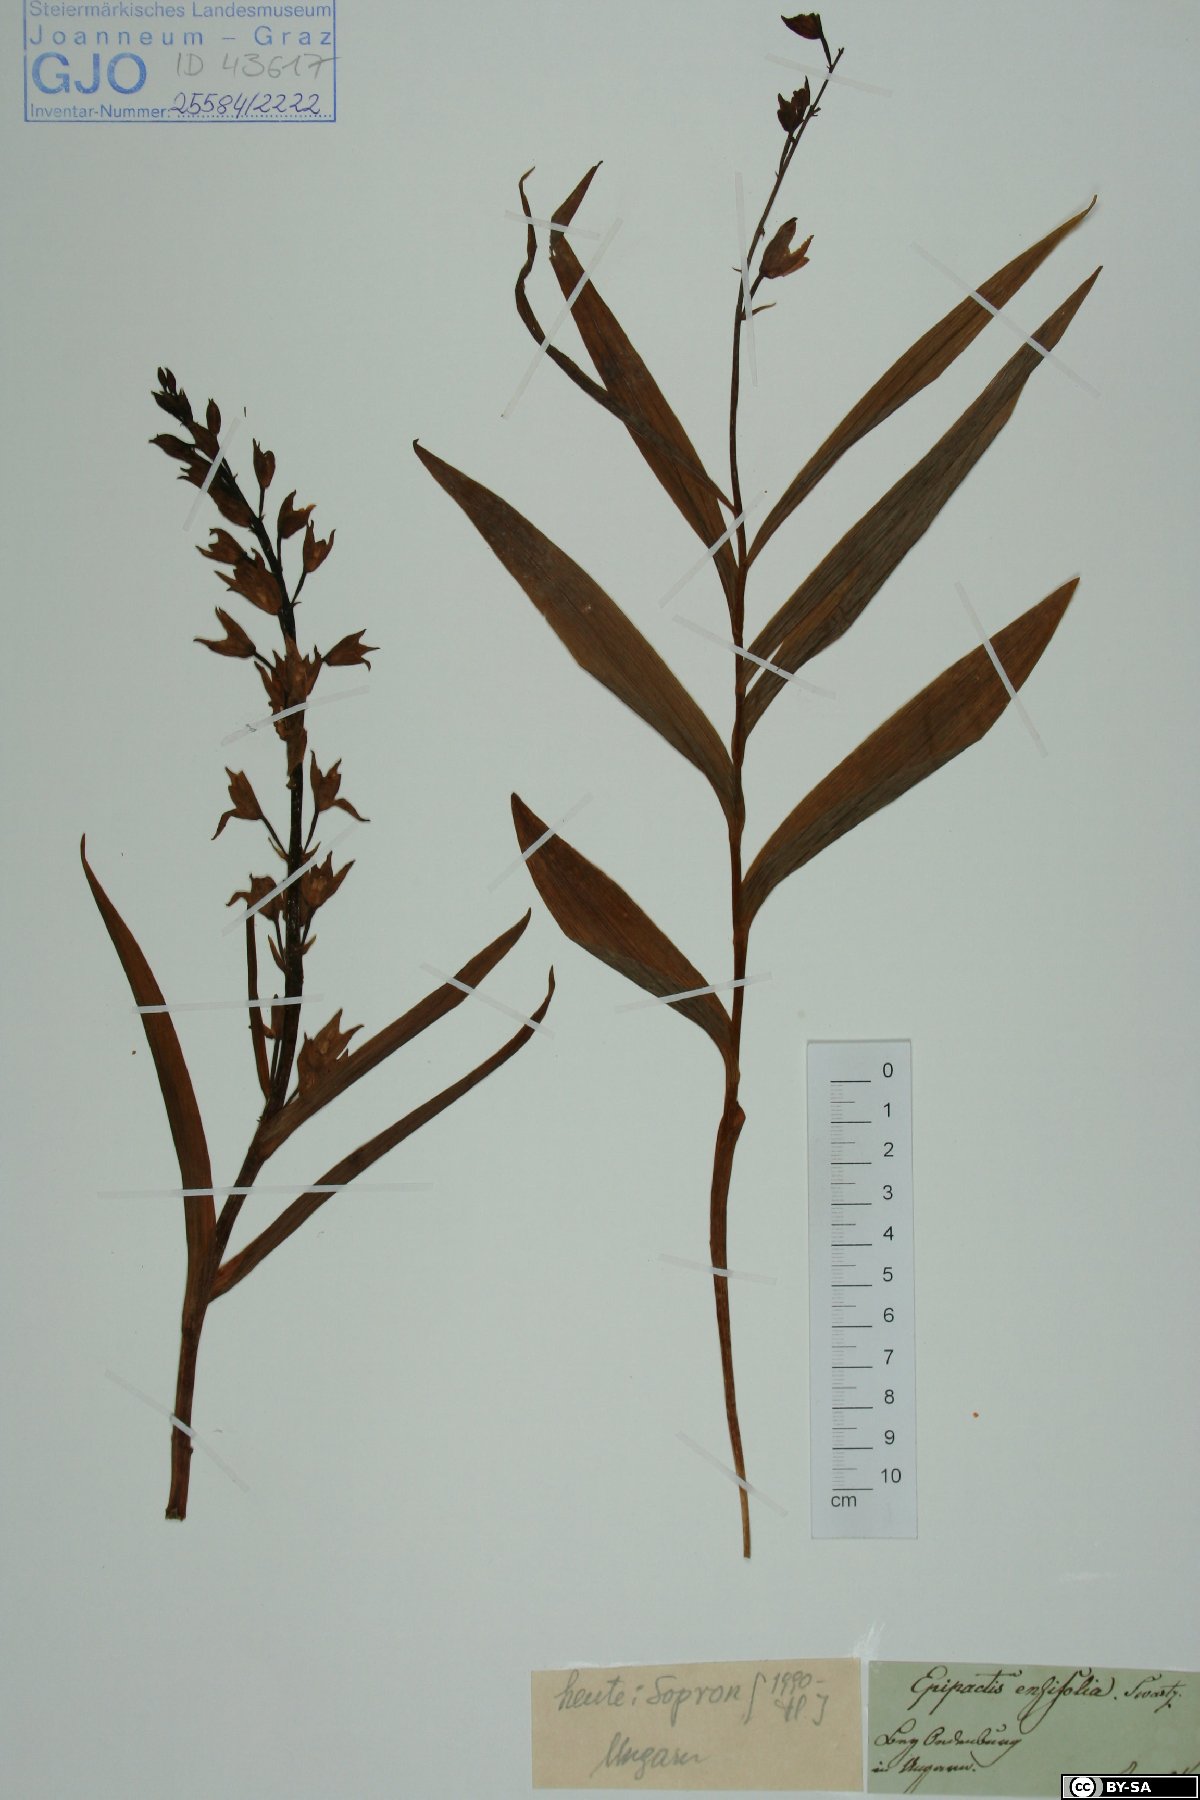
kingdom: Plantae
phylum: Tracheophyta
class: Liliopsida
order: Asparagales
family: Orchidaceae
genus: Cephalanthera
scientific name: Cephalanthera longifolia
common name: Narrow-leaved helleborine
